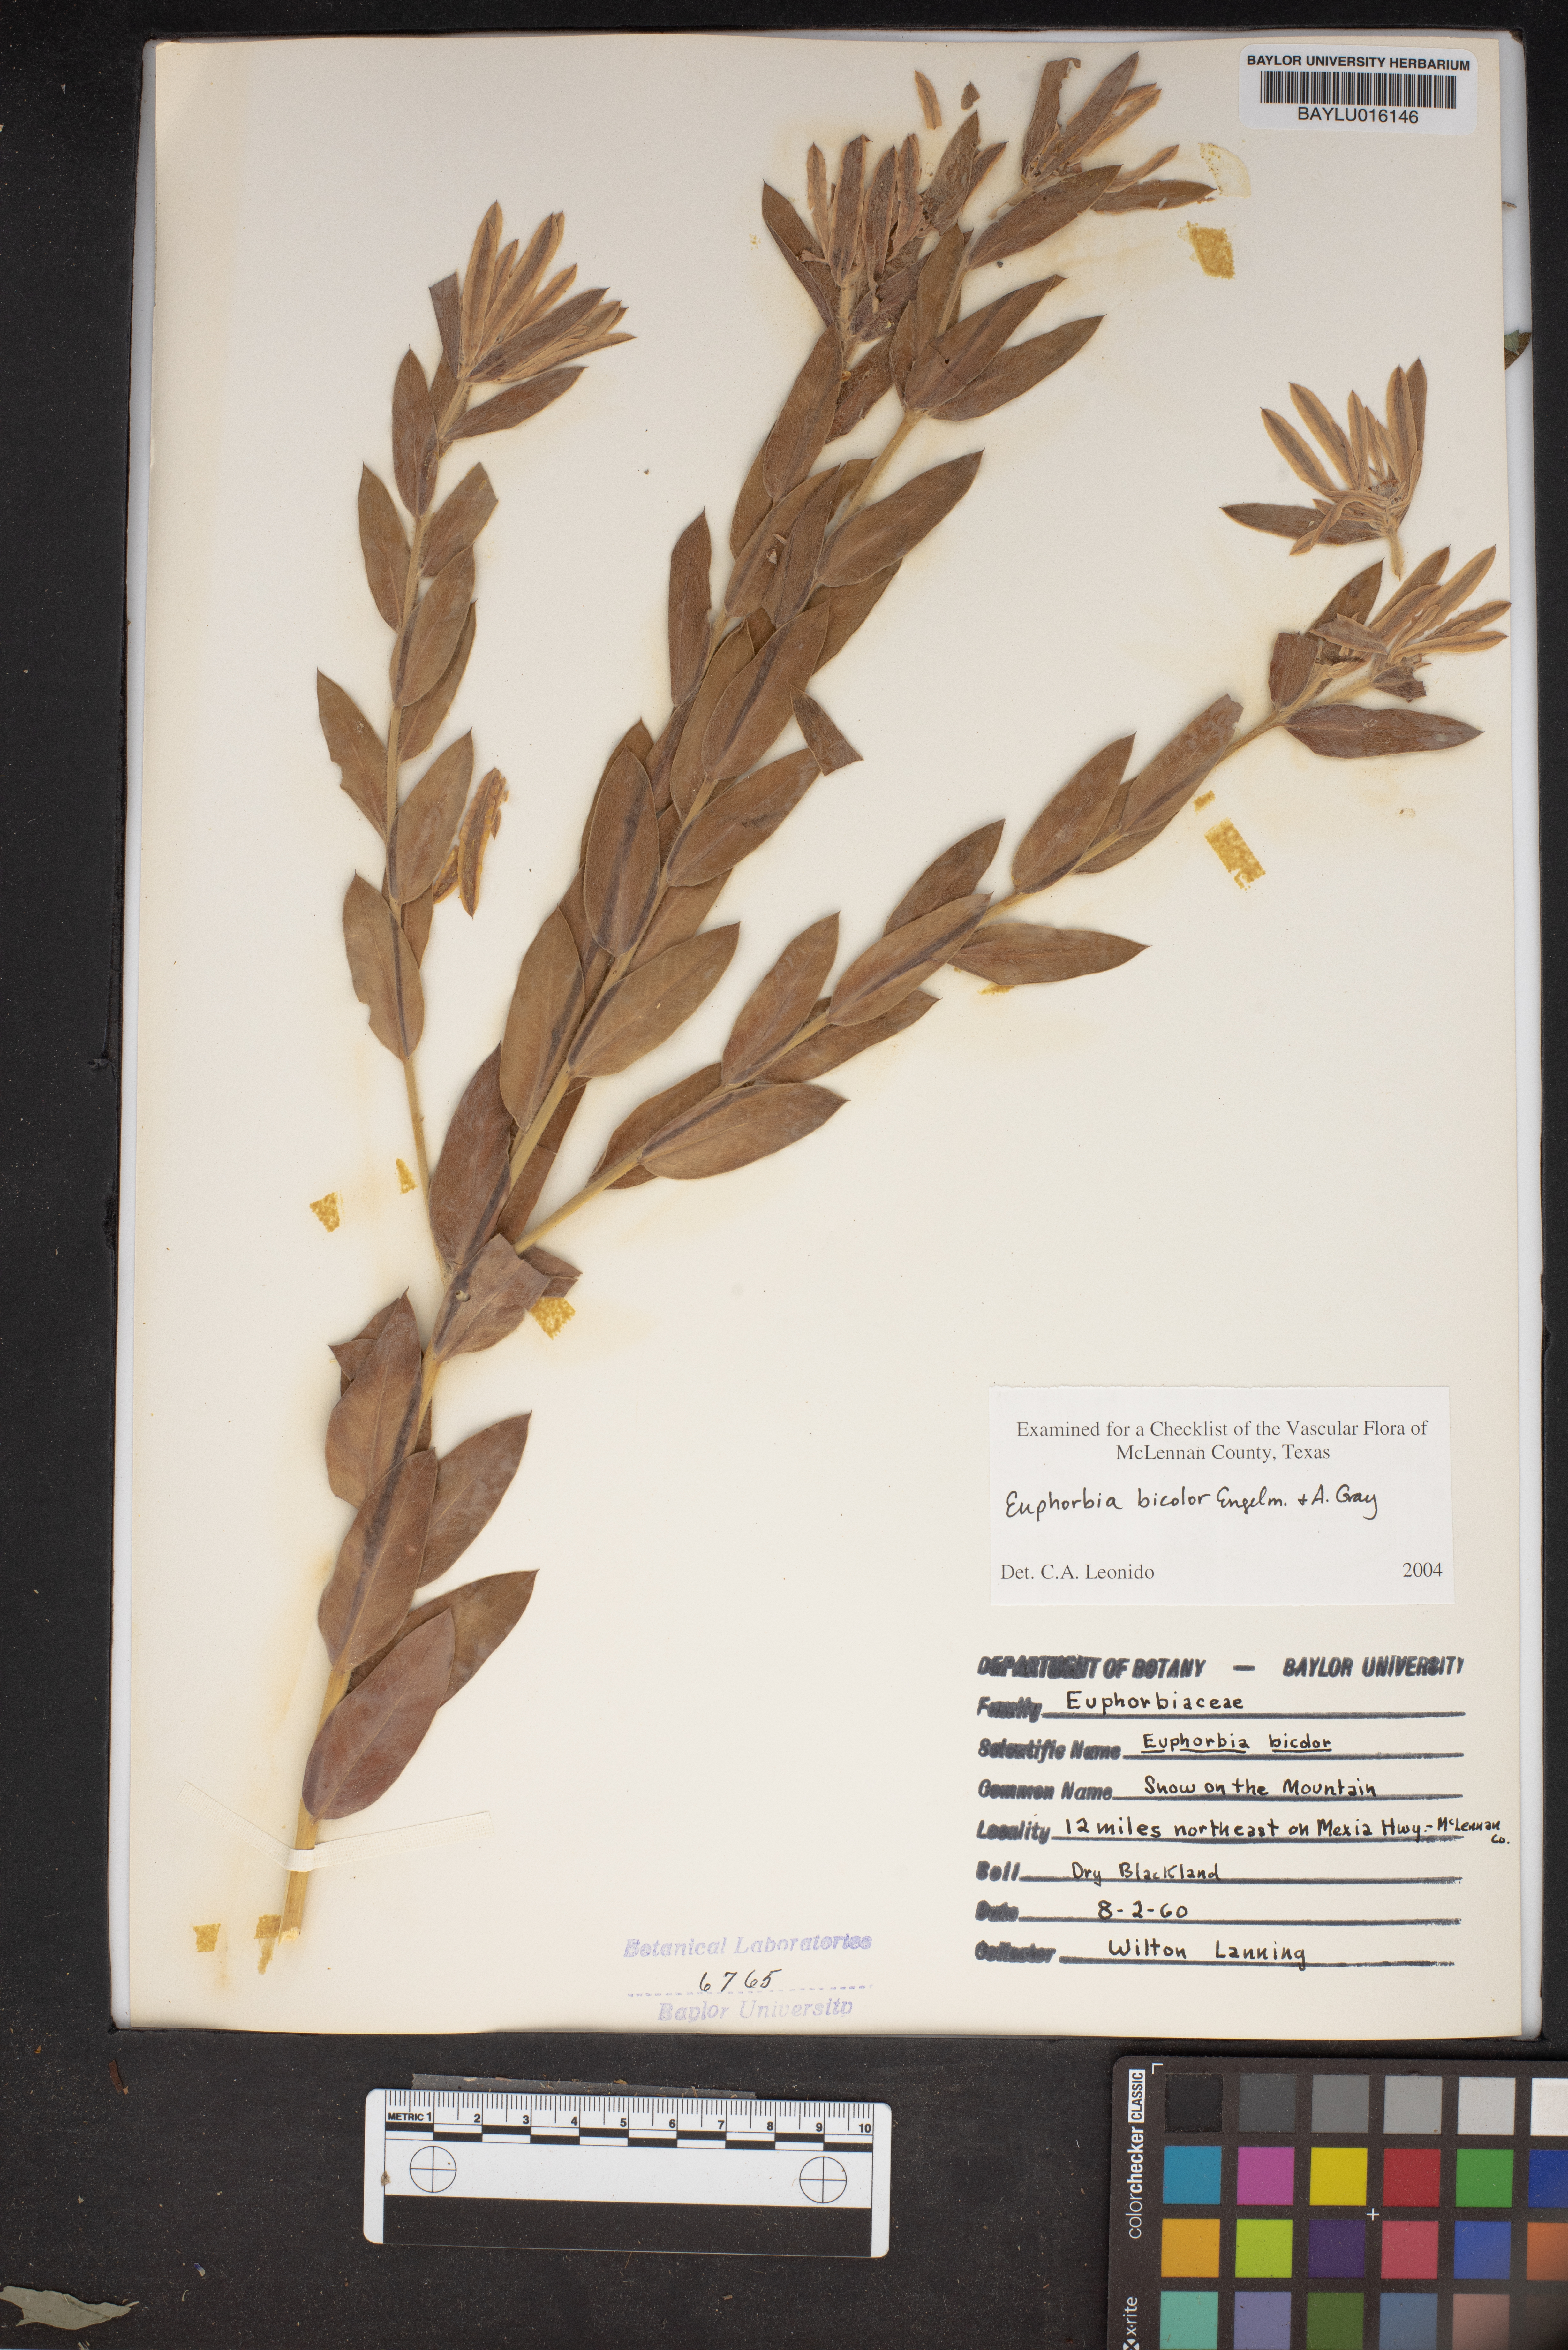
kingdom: Plantae
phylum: Tracheophyta
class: Magnoliopsida
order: Malpighiales
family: Euphorbiaceae
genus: Euphorbia
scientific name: Euphorbia bicolor
